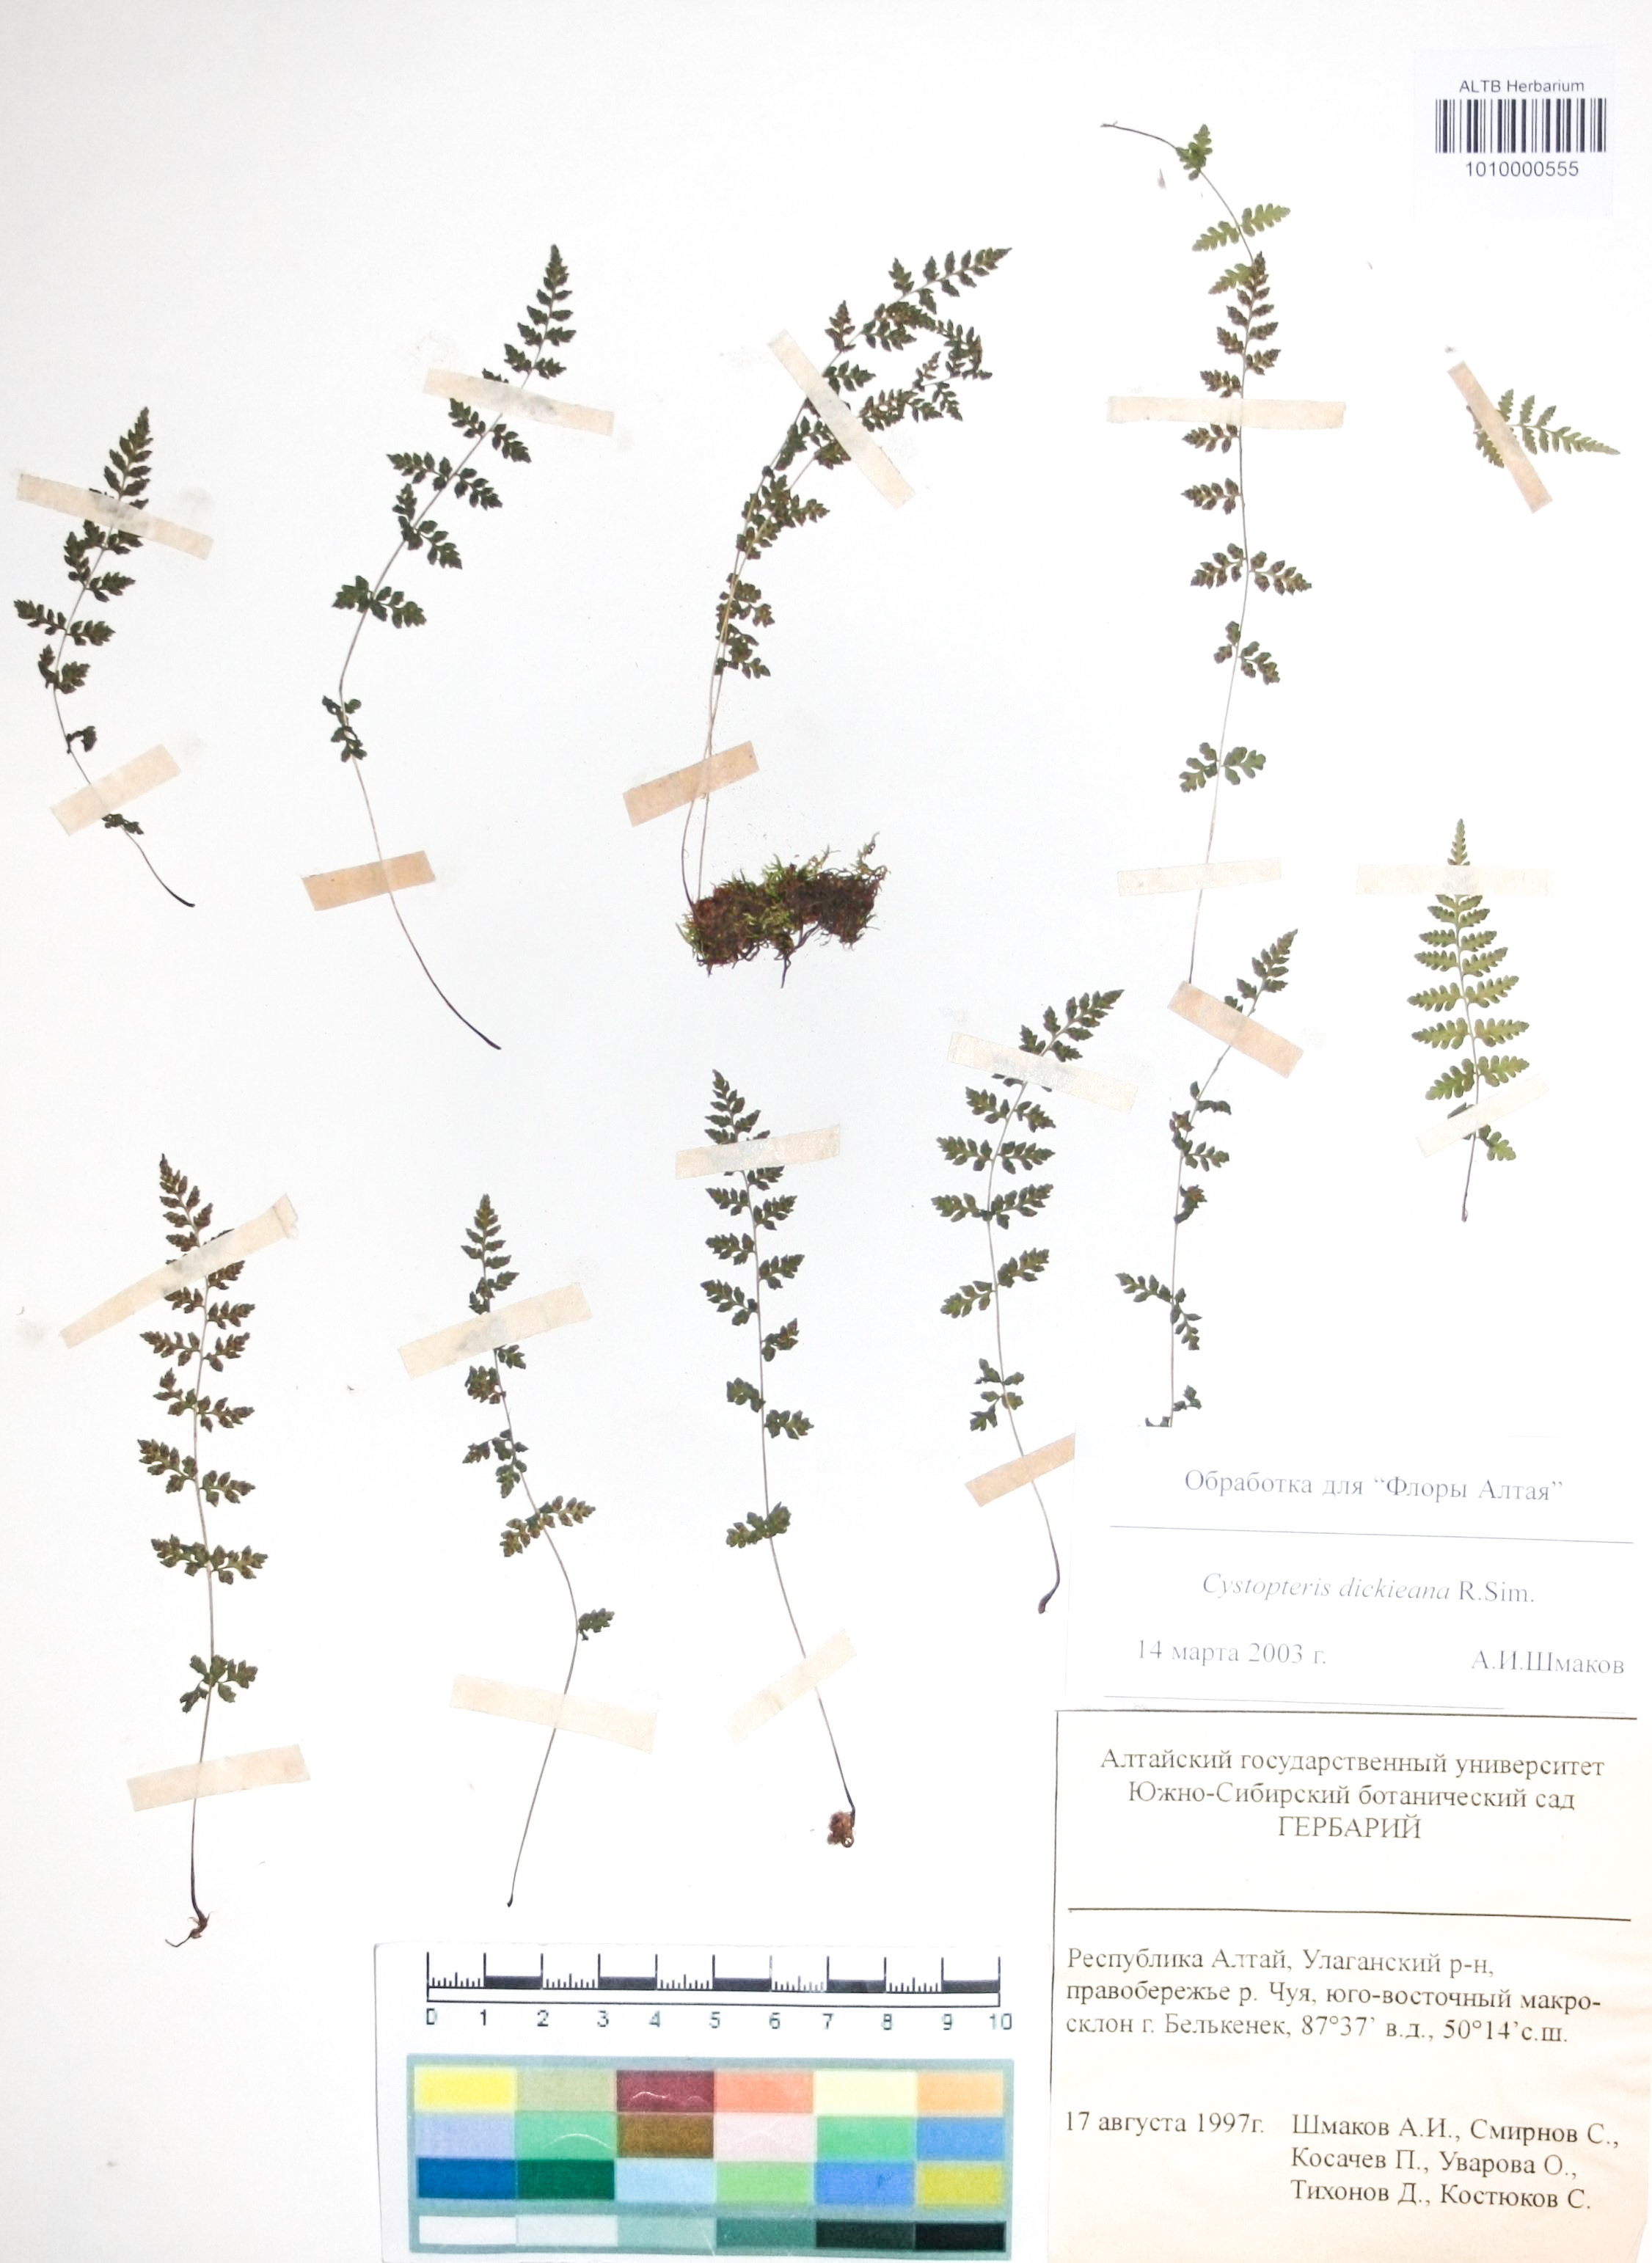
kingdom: Plantae
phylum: Tracheophyta
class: Polypodiopsida
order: Polypodiales
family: Cystopteridaceae
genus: Cystopteris
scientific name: Cystopteris dickieana
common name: Dickie's bladder-fern
